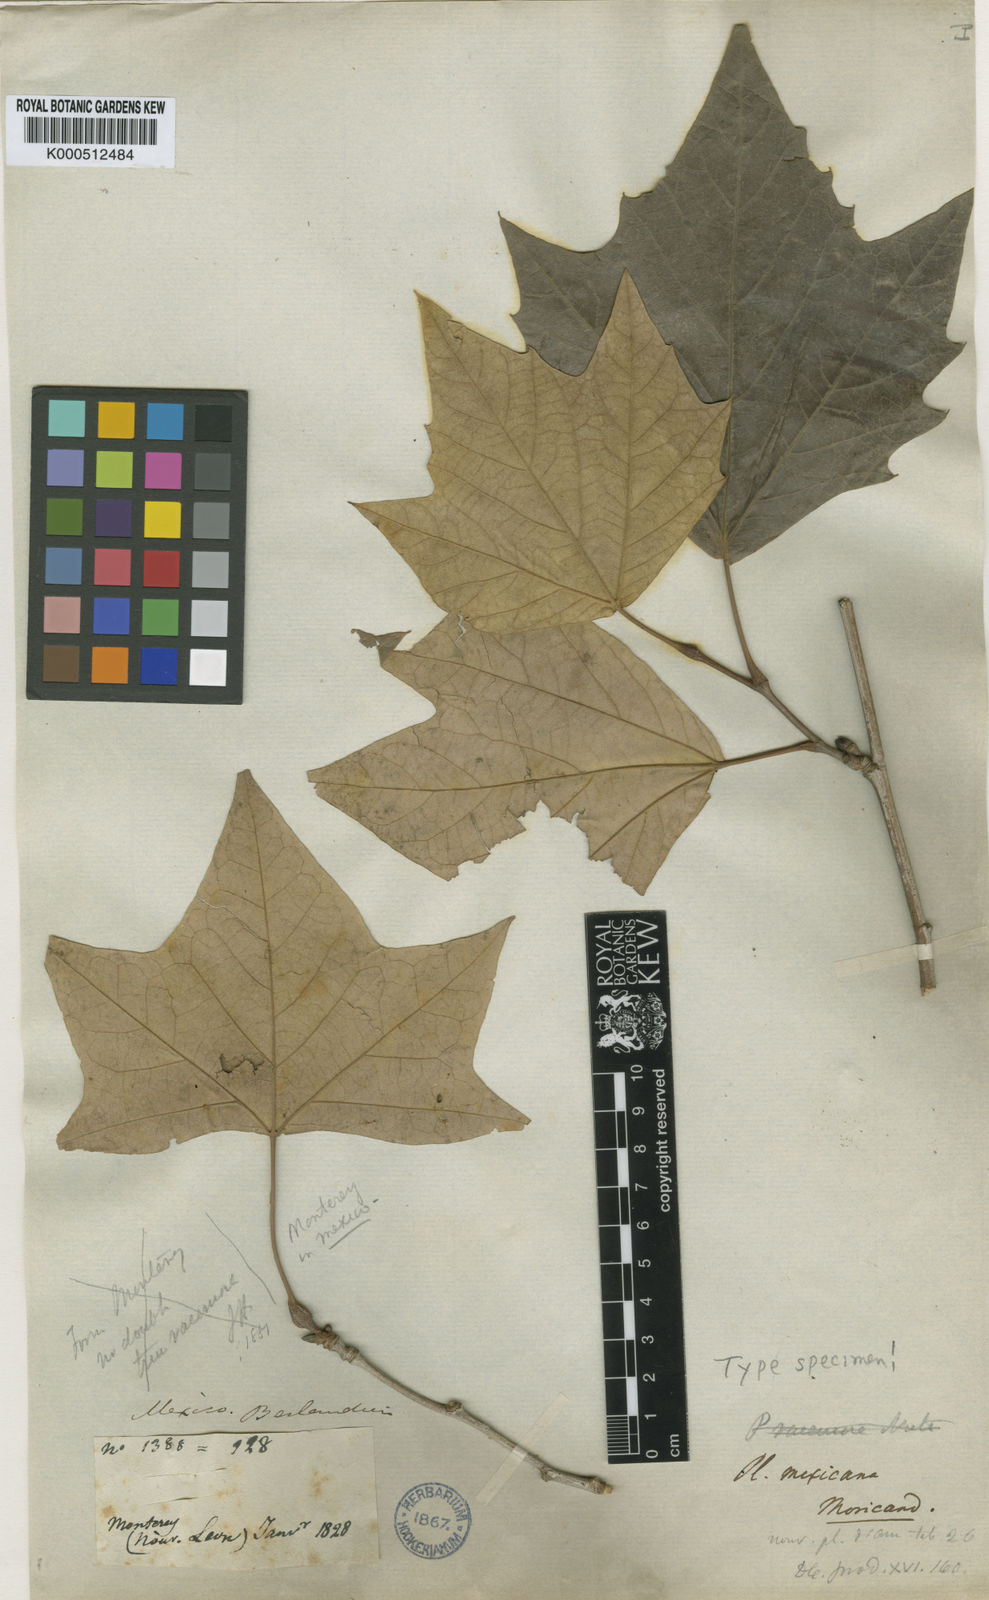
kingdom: Plantae
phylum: Tracheophyta
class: Magnoliopsida
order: Proteales
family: Platanaceae
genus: Platanus
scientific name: Platanus mexicana
